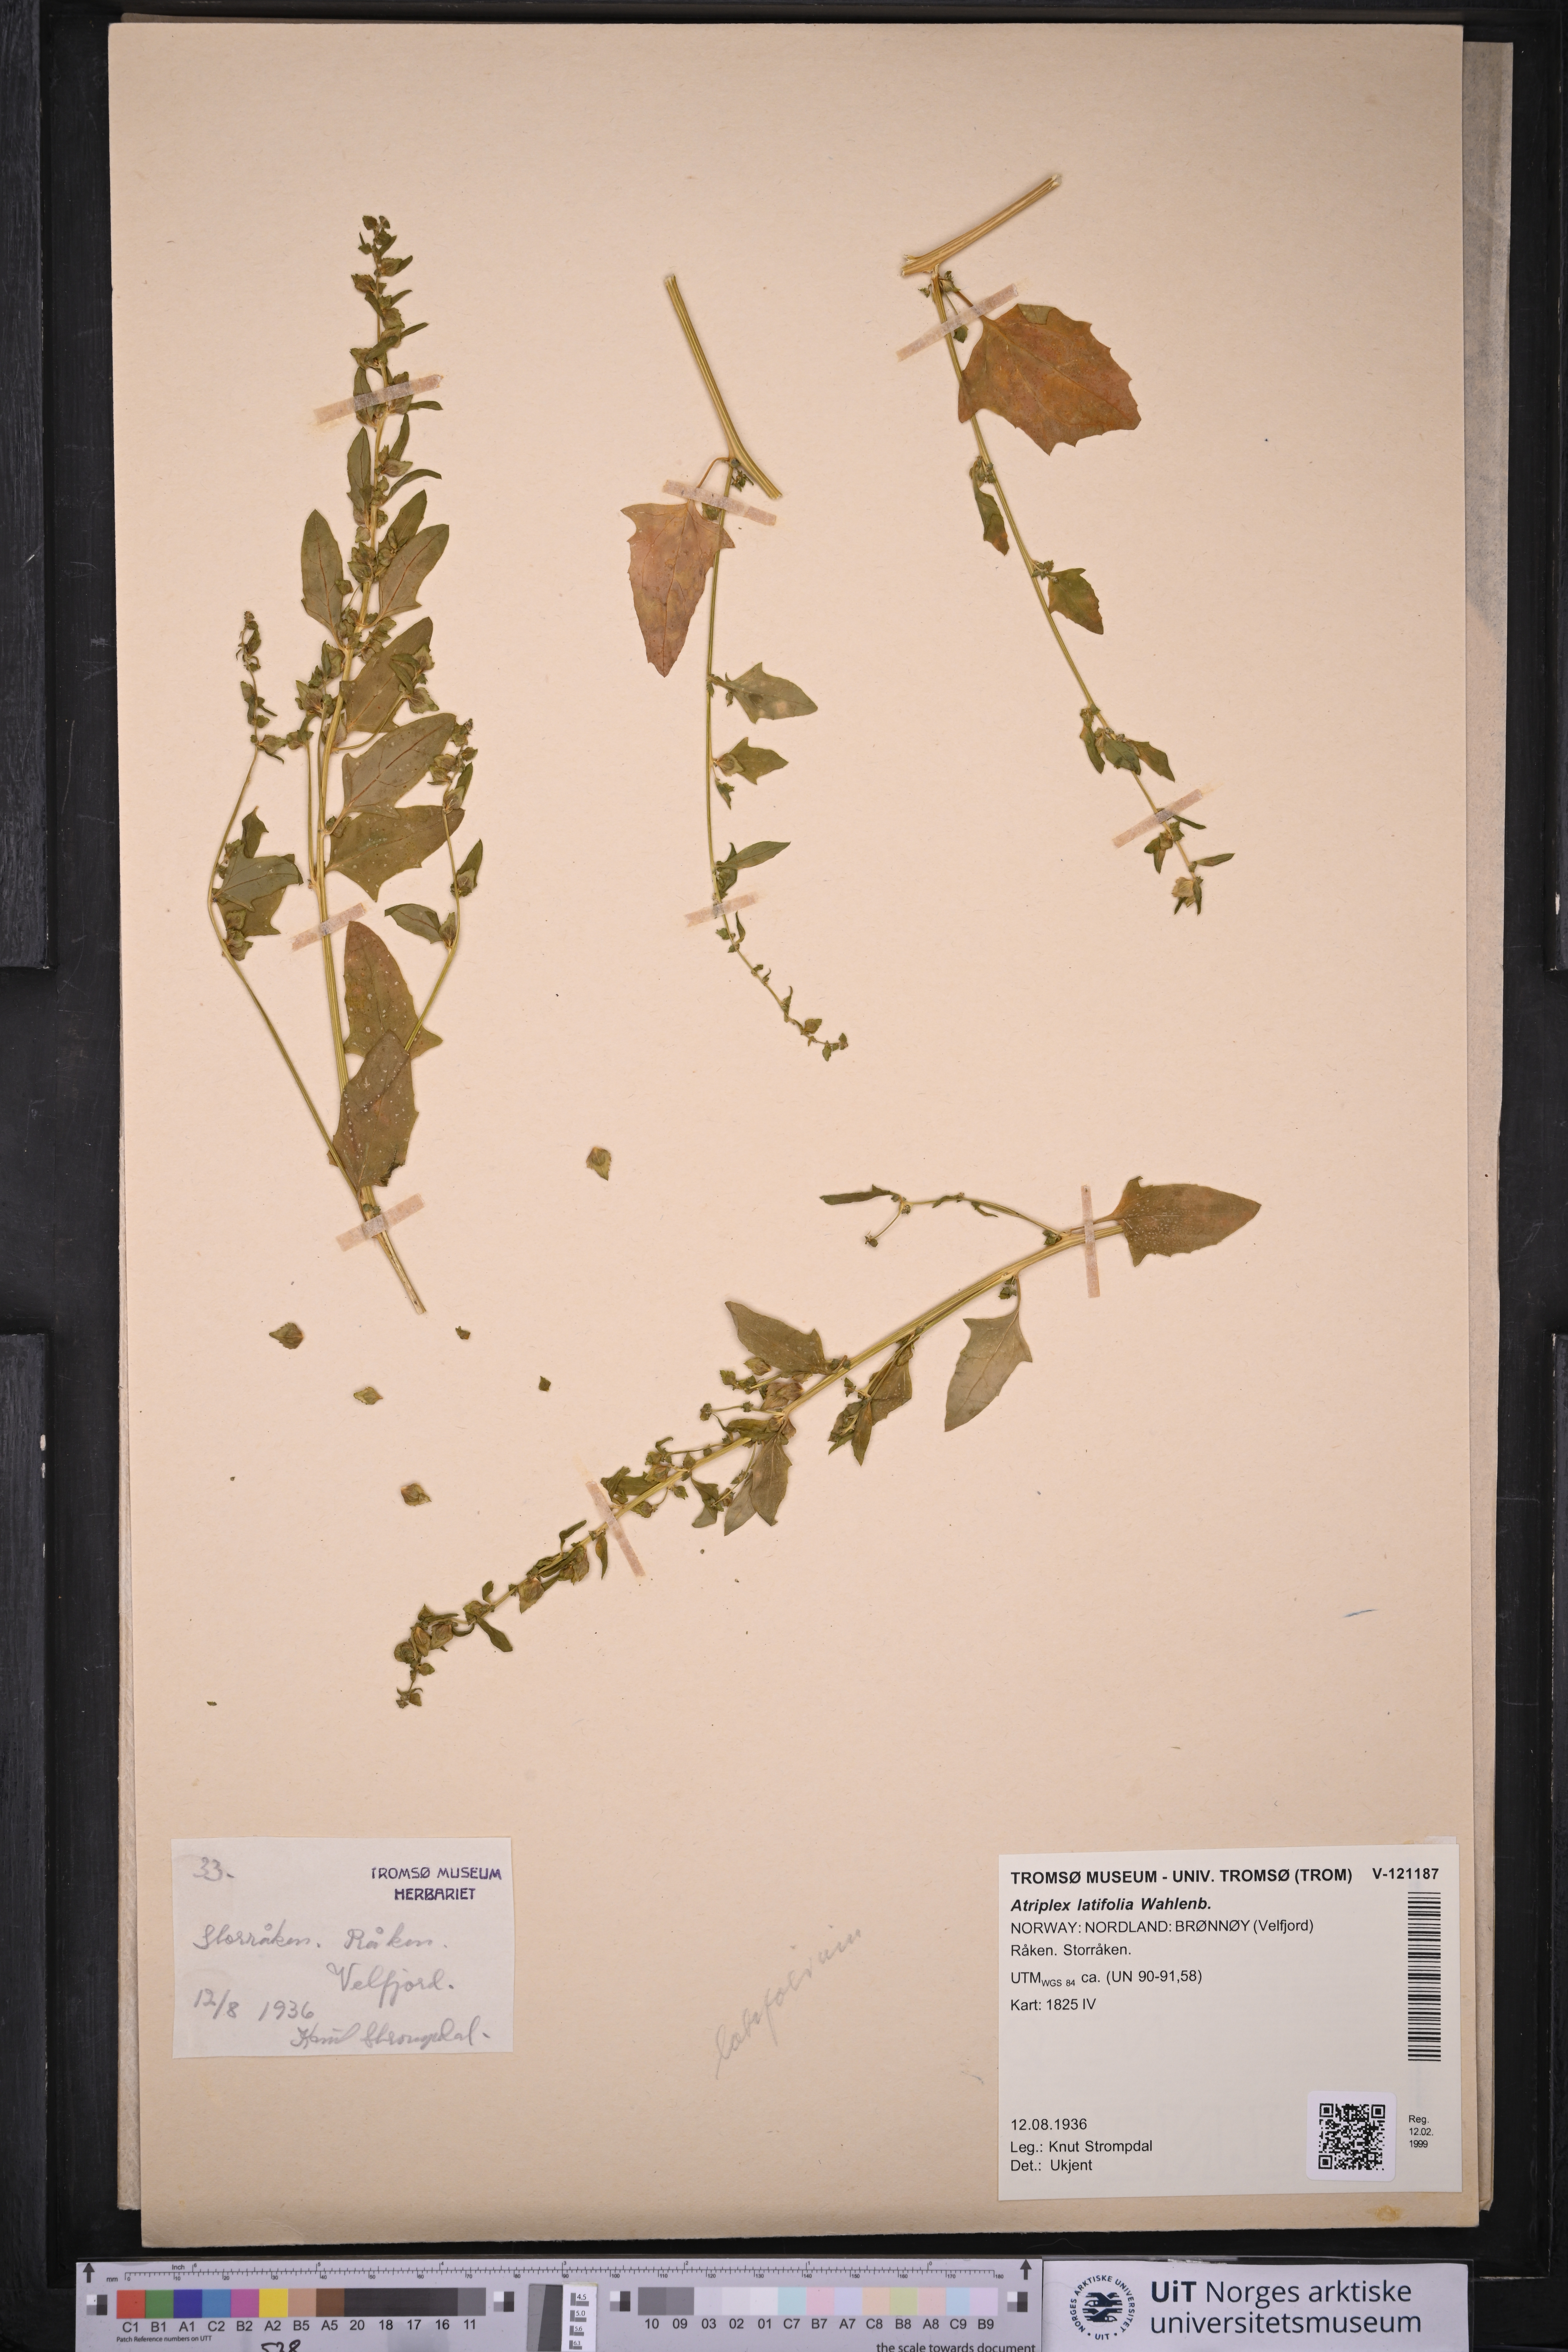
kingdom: Plantae
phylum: Tracheophyta
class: Magnoliopsida
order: Caryophyllales
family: Amaranthaceae
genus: Atriplex
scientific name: Atriplex prostrata
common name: Spear-leaved orache
